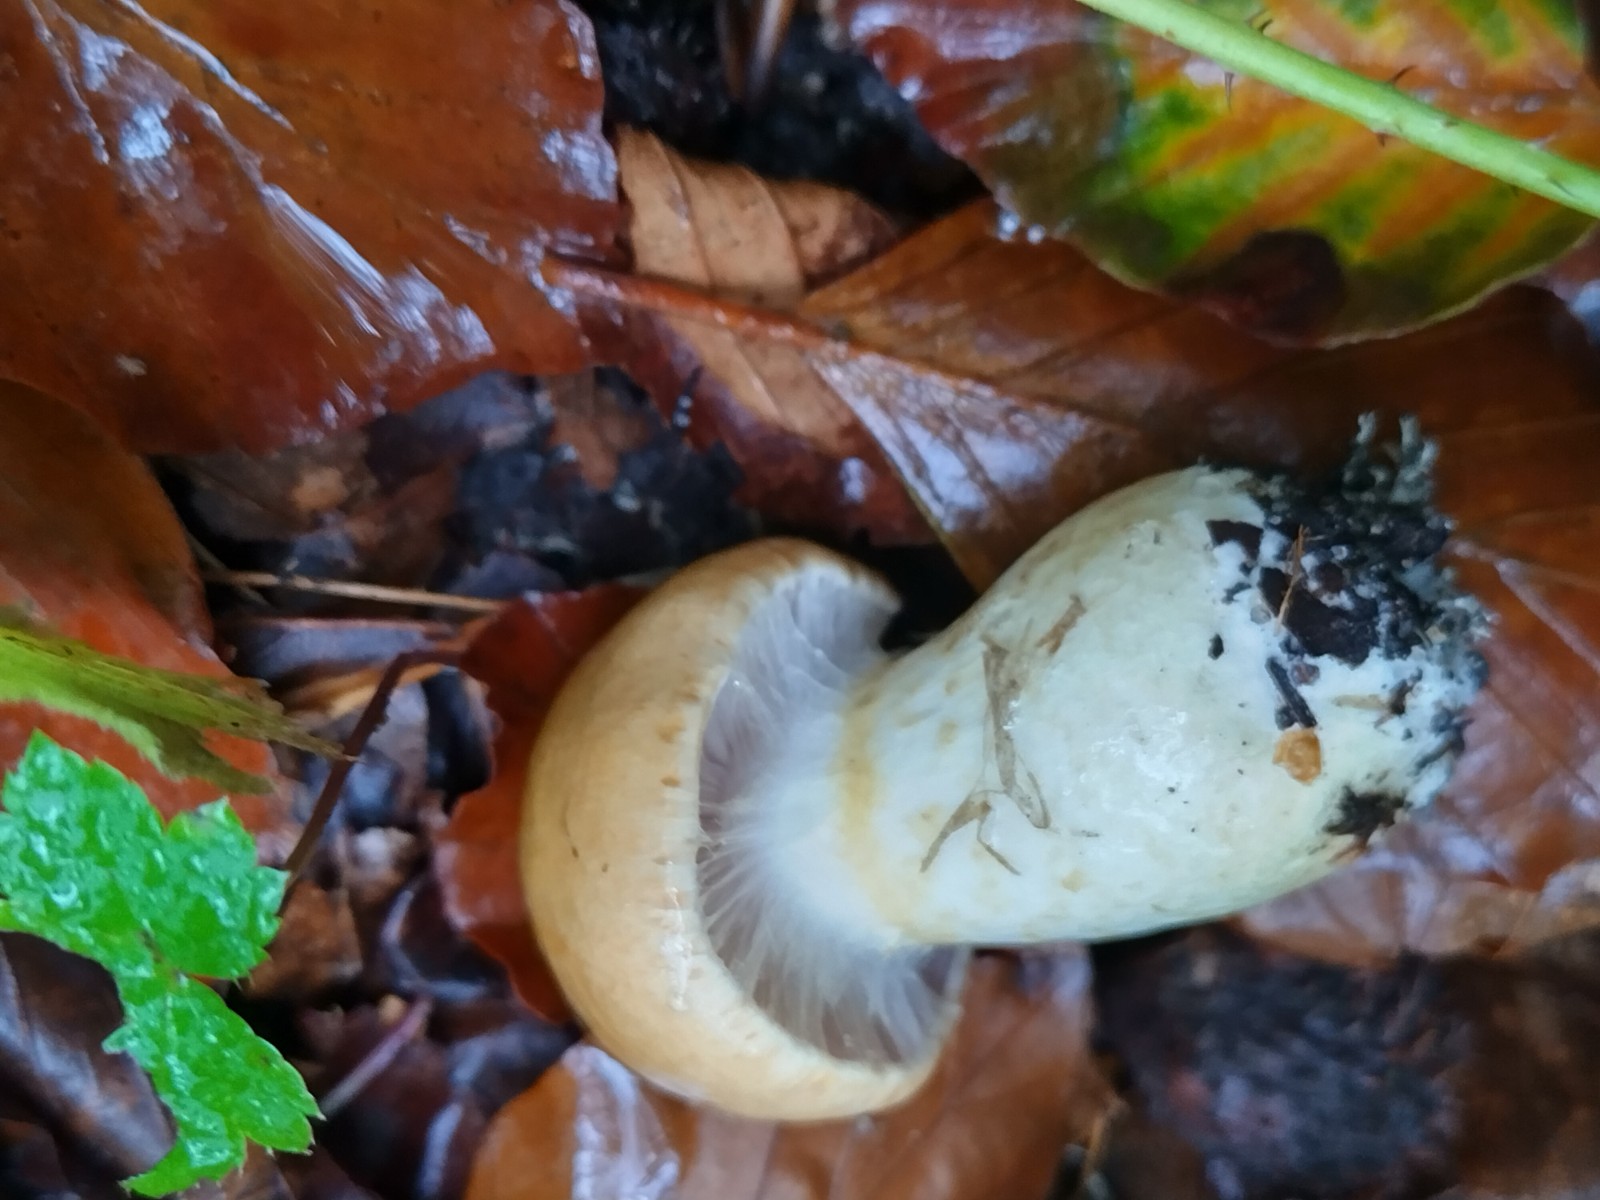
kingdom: Fungi
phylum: Basidiomycota
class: Agaricomycetes
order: Agaricales
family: Cortinariaceae
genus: Phlegmacium
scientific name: Phlegmacium cliduchus
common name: majs-slørhat
